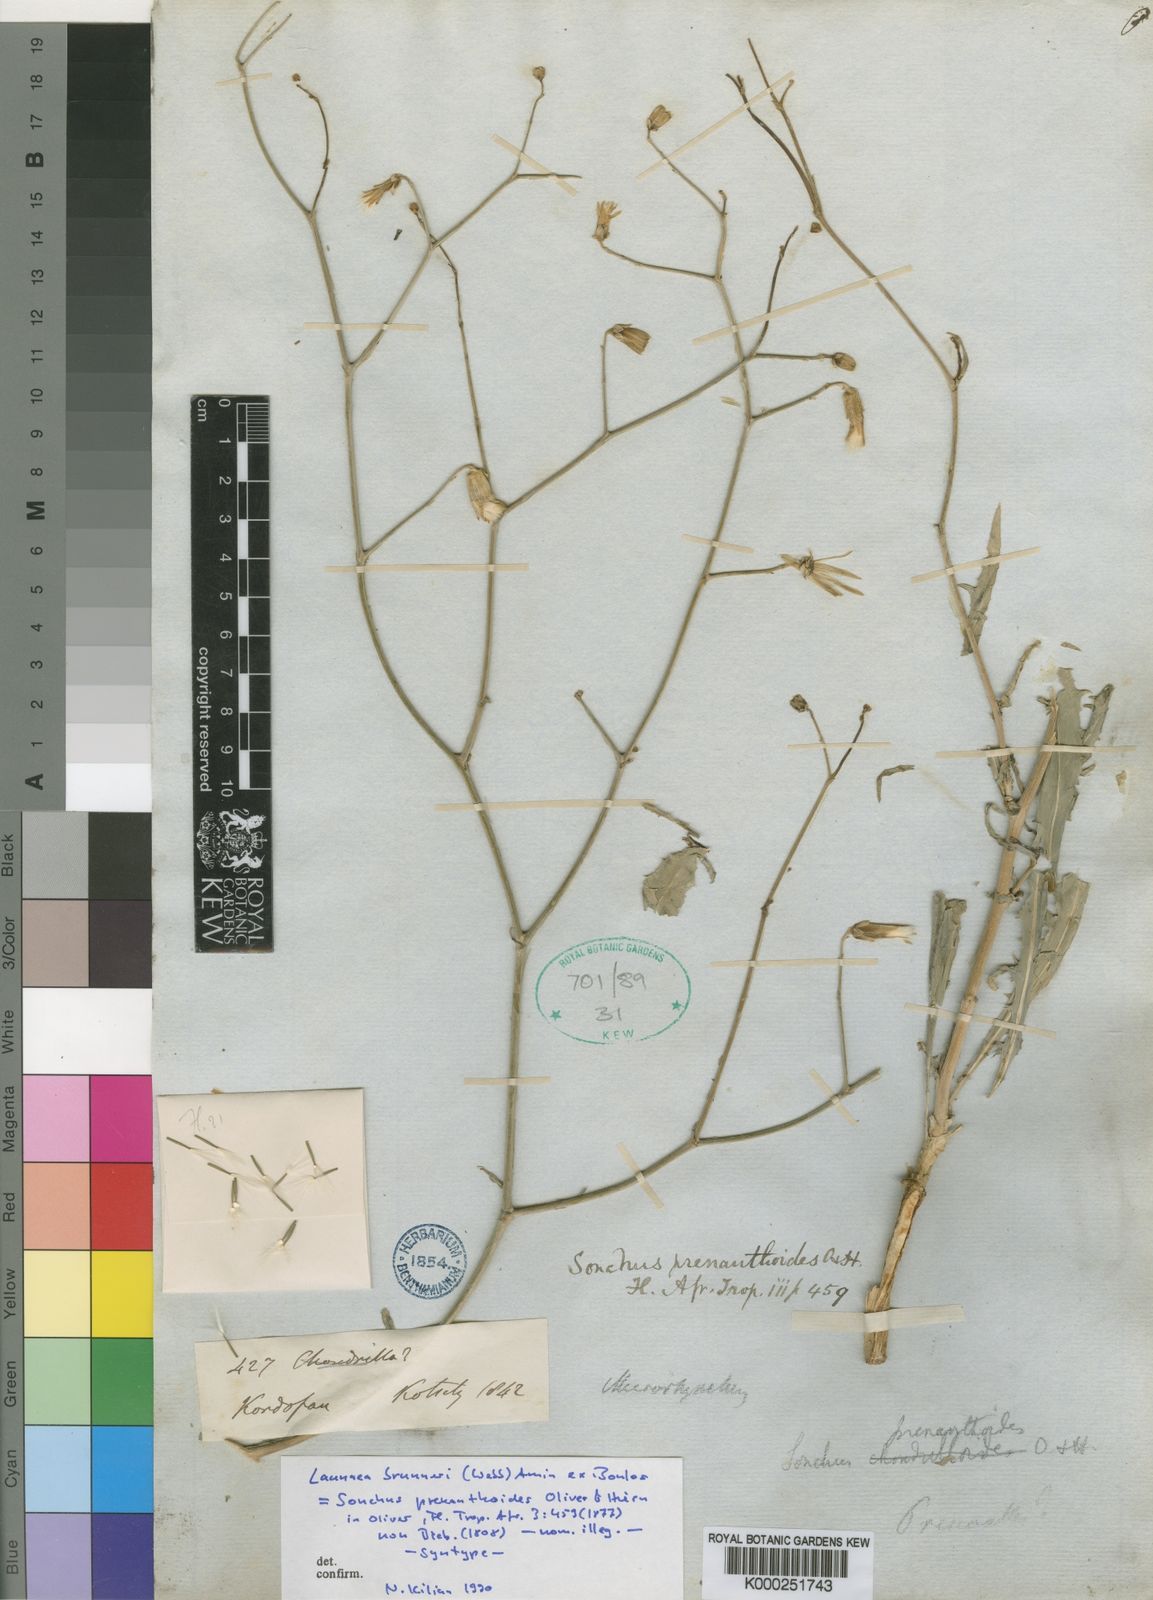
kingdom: Plantae
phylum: Tracheophyta
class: Magnoliopsida
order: Asterales
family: Asteraceae
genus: Launaea
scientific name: Launaea brunneri
